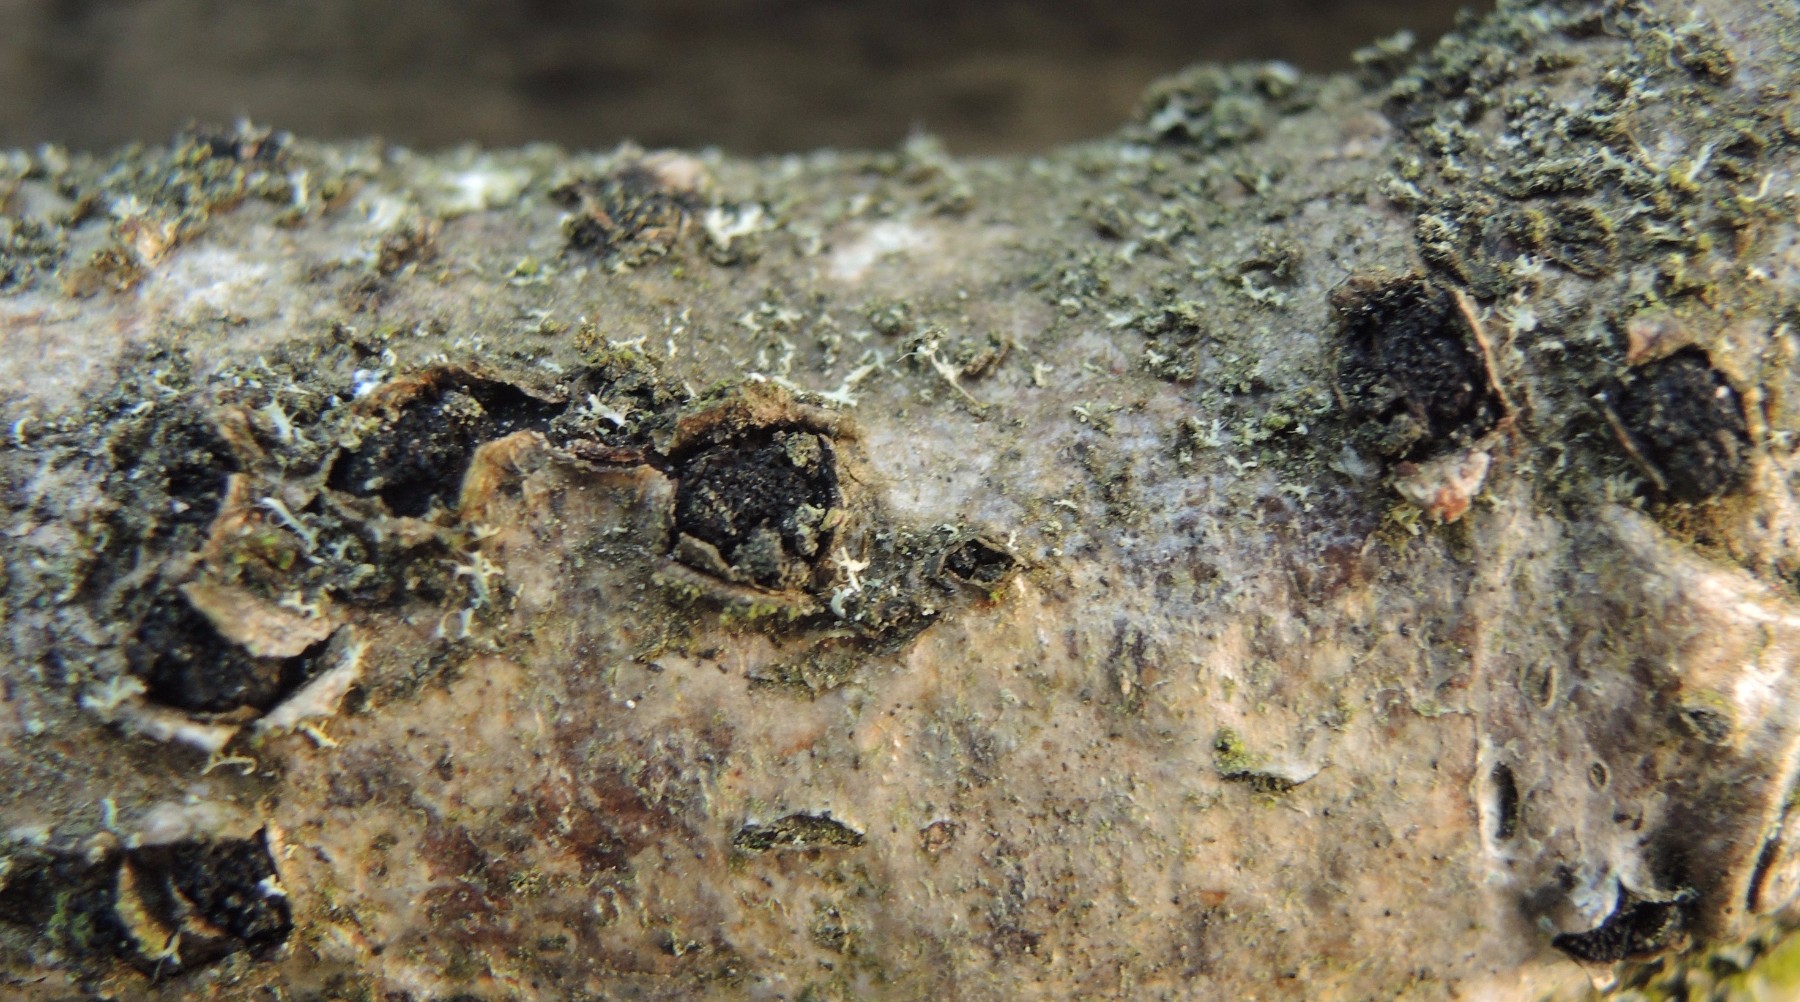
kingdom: Fungi
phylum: Ascomycota
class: Sordariomycetes
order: Xylariales
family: Diatrypaceae
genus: Eutypella
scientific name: Eutypella sorbi
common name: rønne-kulskorpe
